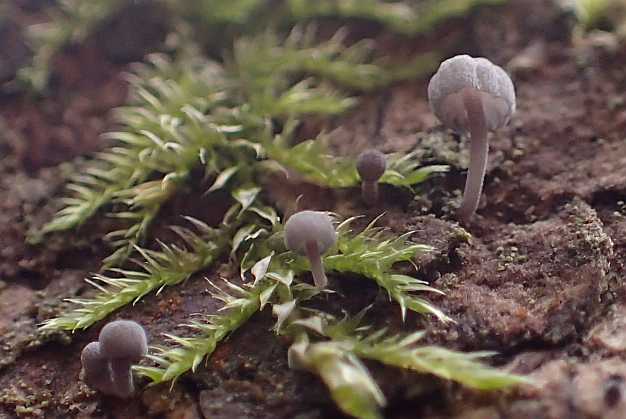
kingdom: Fungi
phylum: Basidiomycota
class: Agaricomycetes
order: Agaricales
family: Mycenaceae
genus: Mycena
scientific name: Mycena pseudocorticola
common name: gråblå bark-huesvamp
